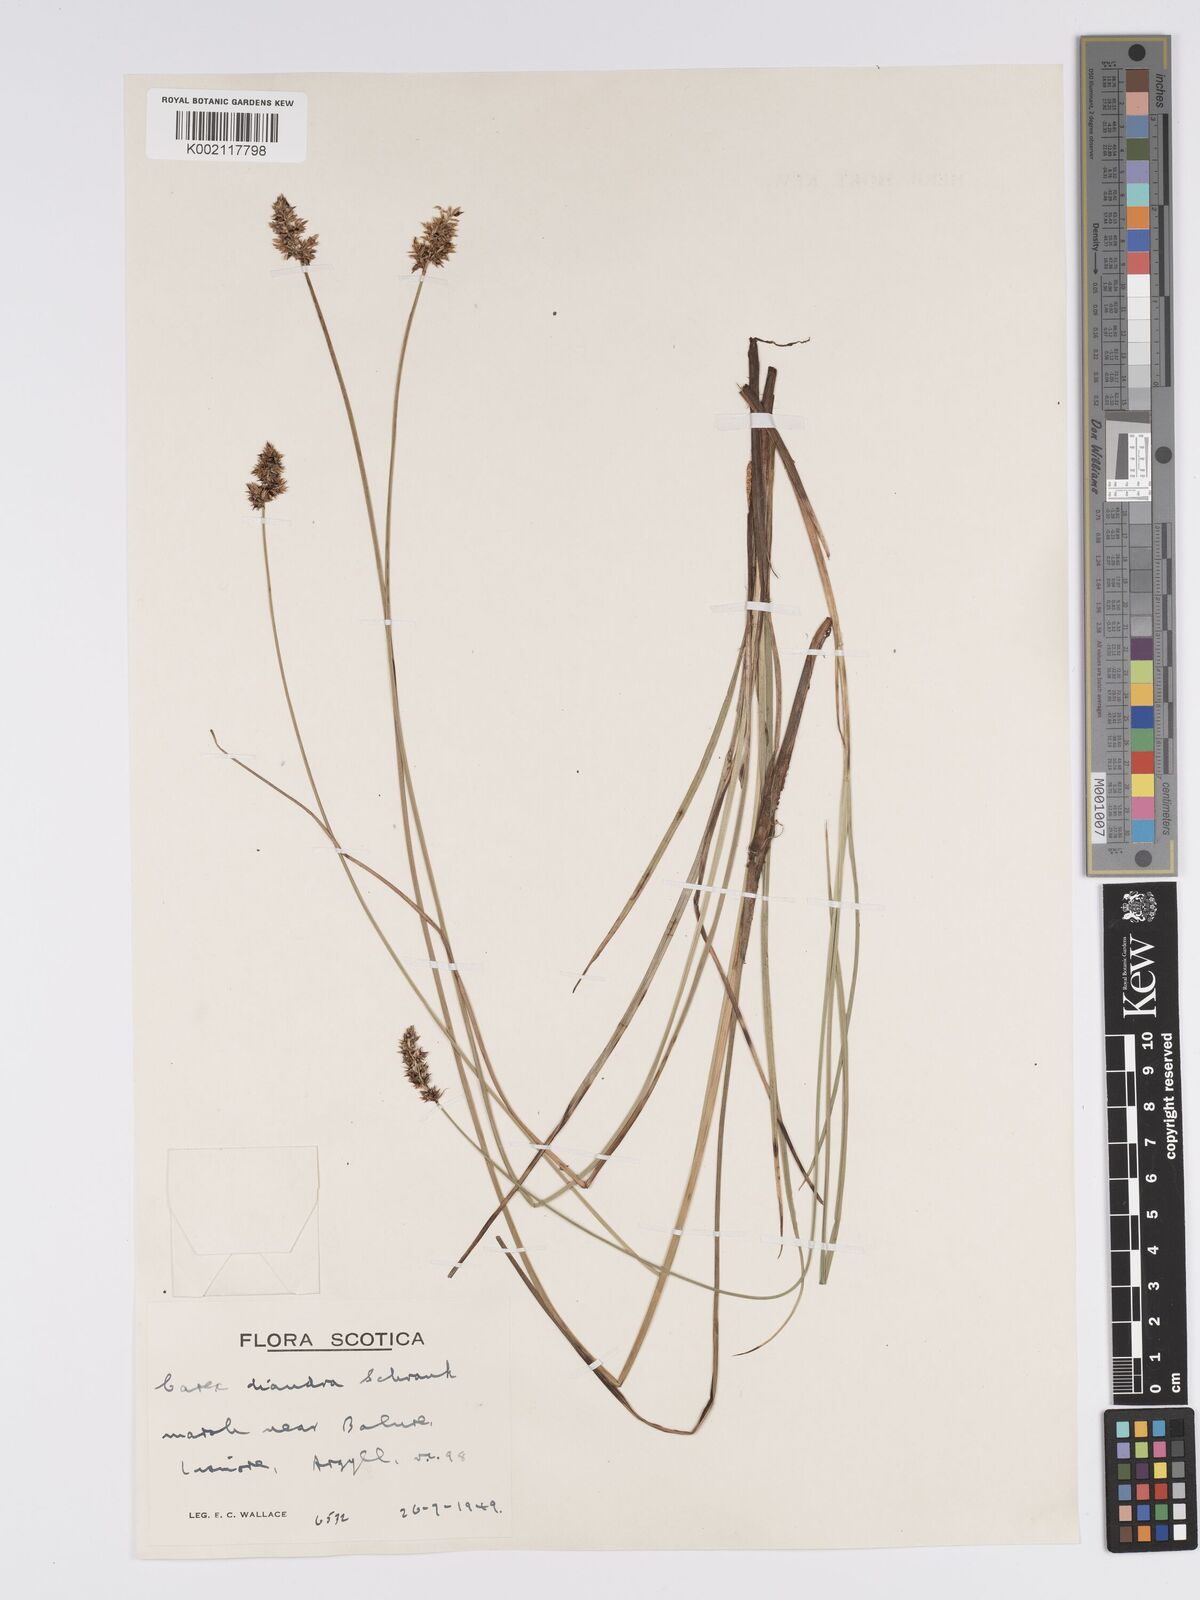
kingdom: Plantae
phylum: Tracheophyta
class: Liliopsida
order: Poales
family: Cyperaceae
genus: Carex
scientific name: Carex diandra
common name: Lesser tussock-sedge
